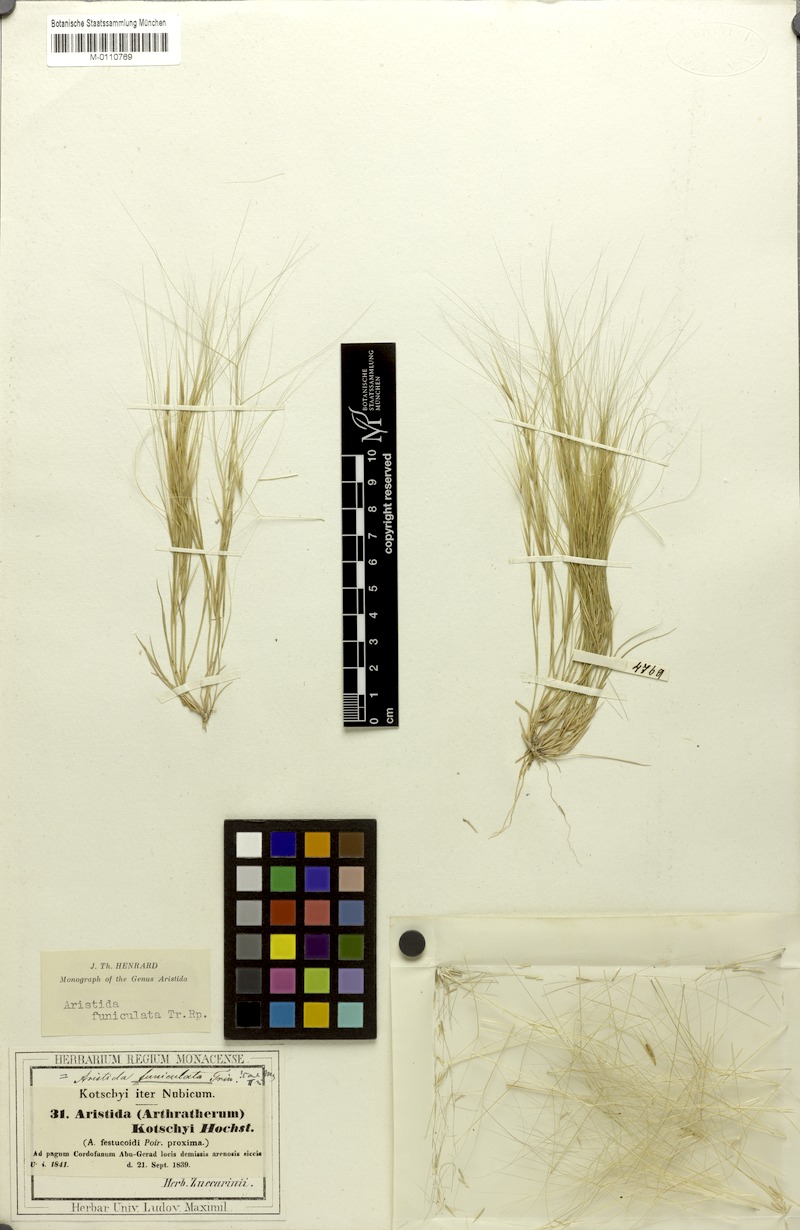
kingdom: Plantae
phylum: Tracheophyta
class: Liliopsida
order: Poales
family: Poaceae
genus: Aristida
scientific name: Aristida funiculata
